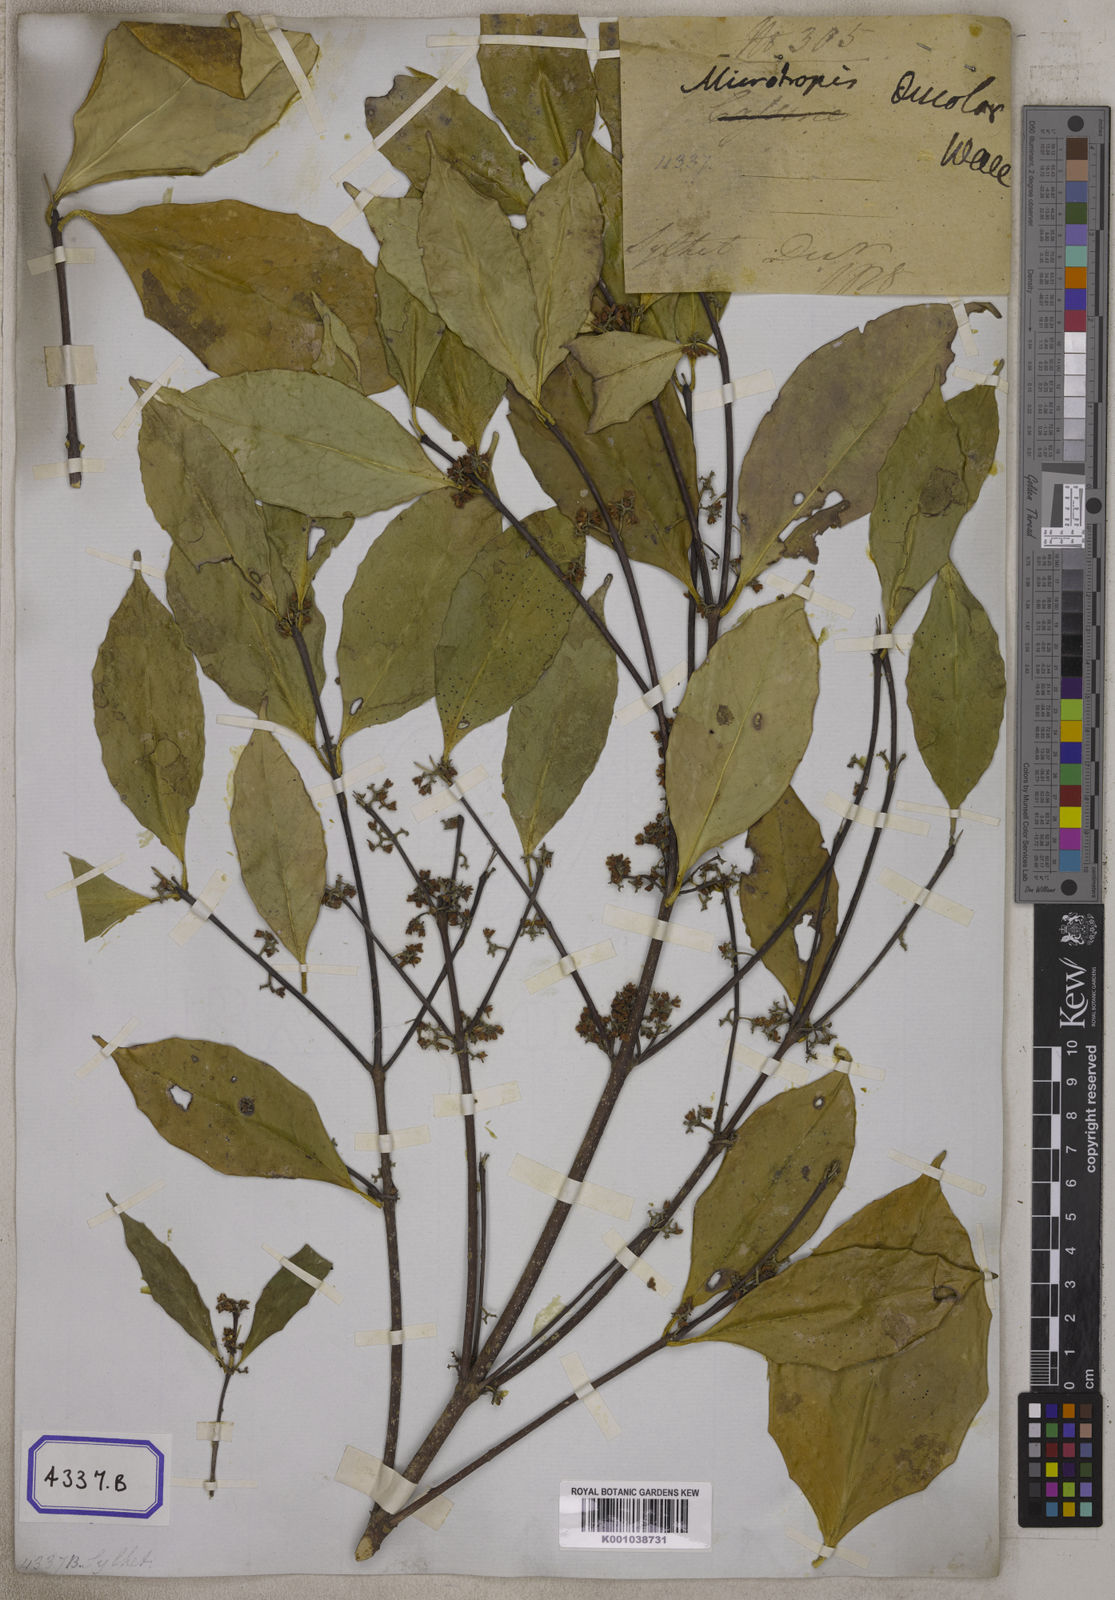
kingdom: Plantae
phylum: Tracheophyta
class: Magnoliopsida
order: Celastrales
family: Celastraceae
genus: Microtropis
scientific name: Microtropis
